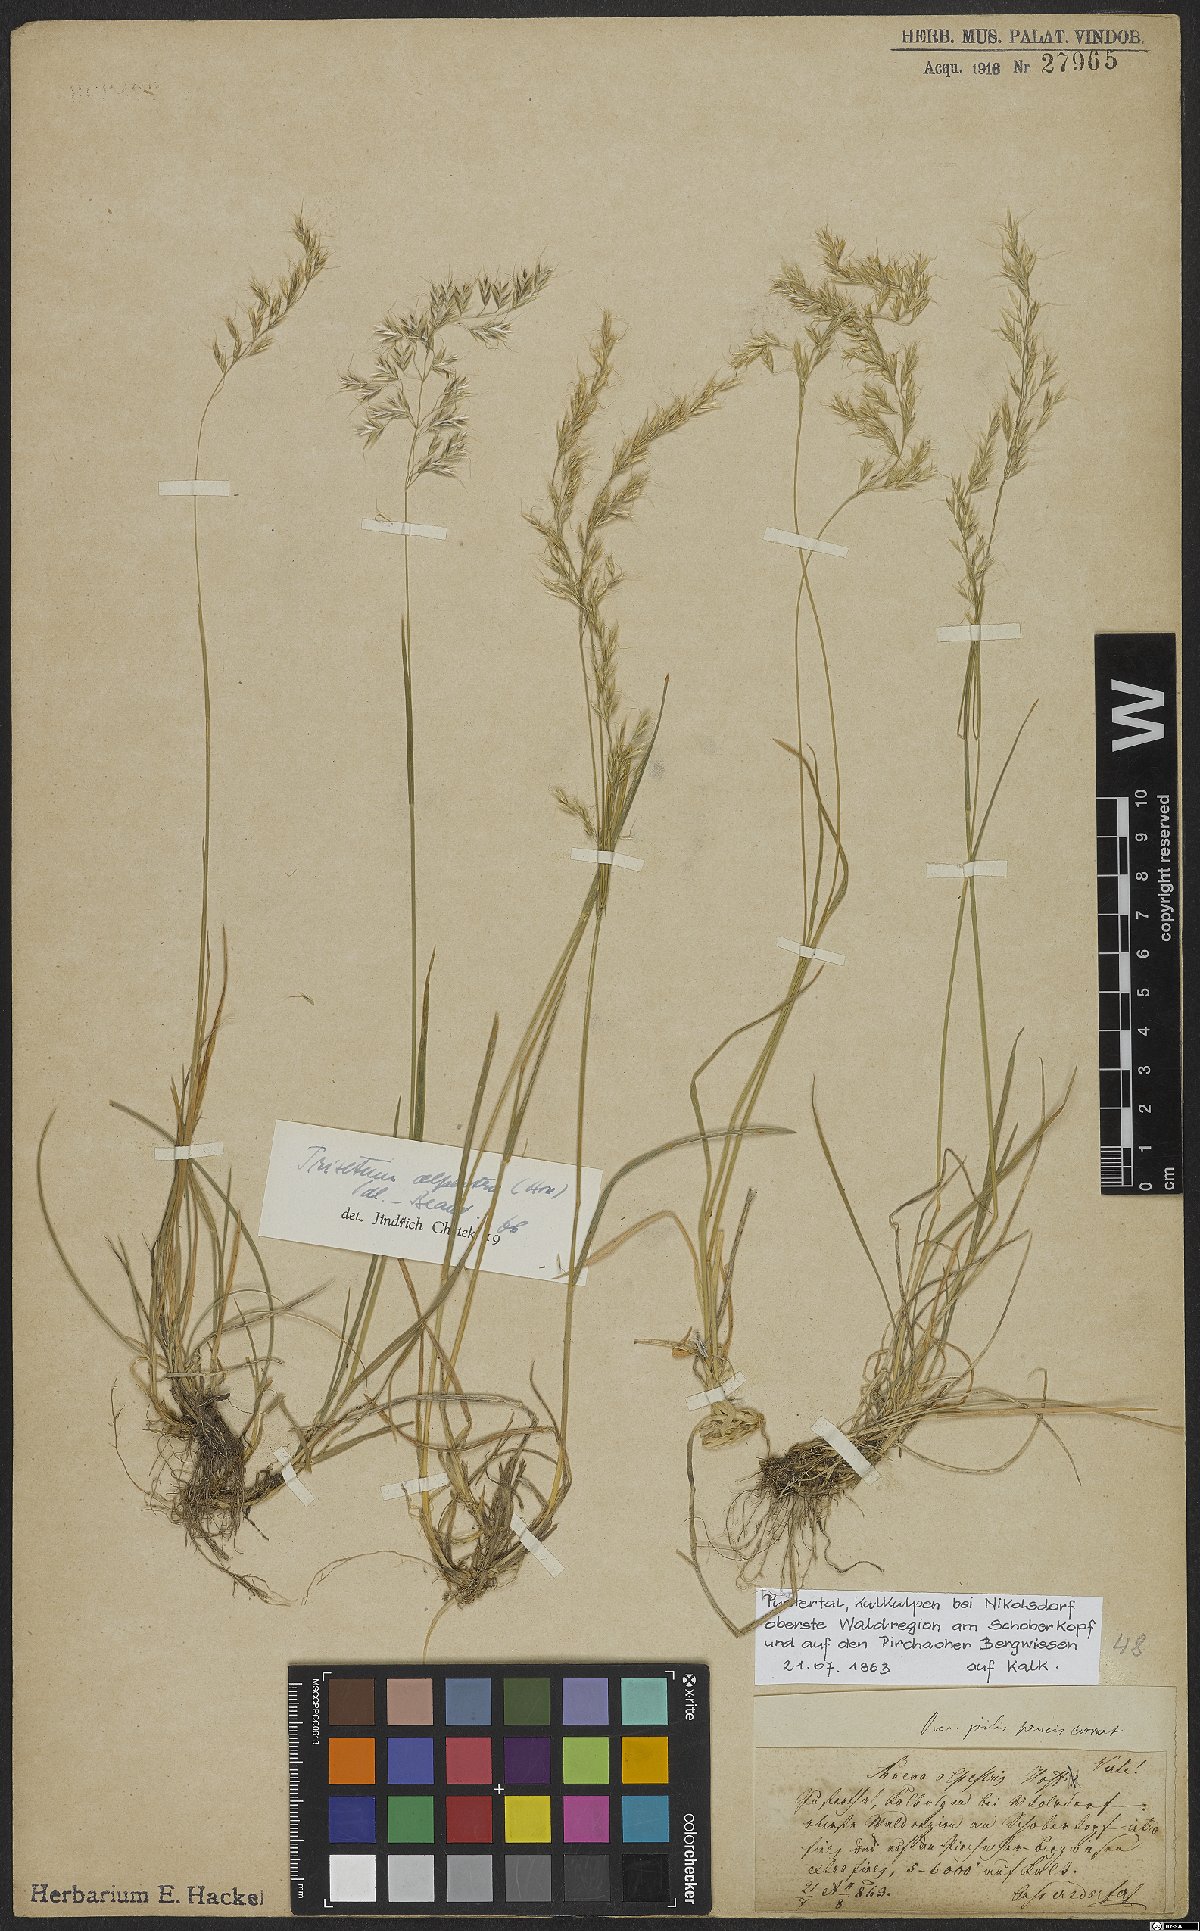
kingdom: Plantae
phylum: Tracheophyta
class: Liliopsida
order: Poales
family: Poaceae
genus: Trisetum
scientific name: Trisetum alpestre
